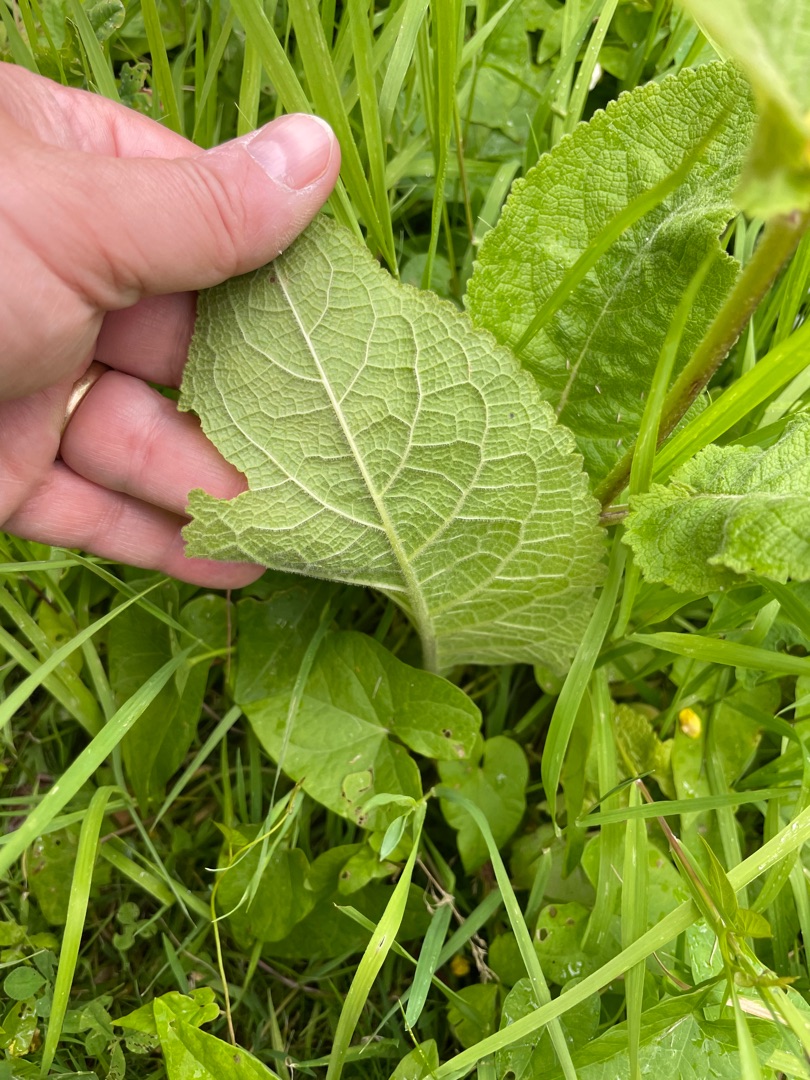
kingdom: Plantae
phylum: Tracheophyta
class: Magnoliopsida
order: Lamiales
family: Scrophulariaceae
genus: Verbascum
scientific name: Verbascum nigrum
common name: Mørk kongelys
